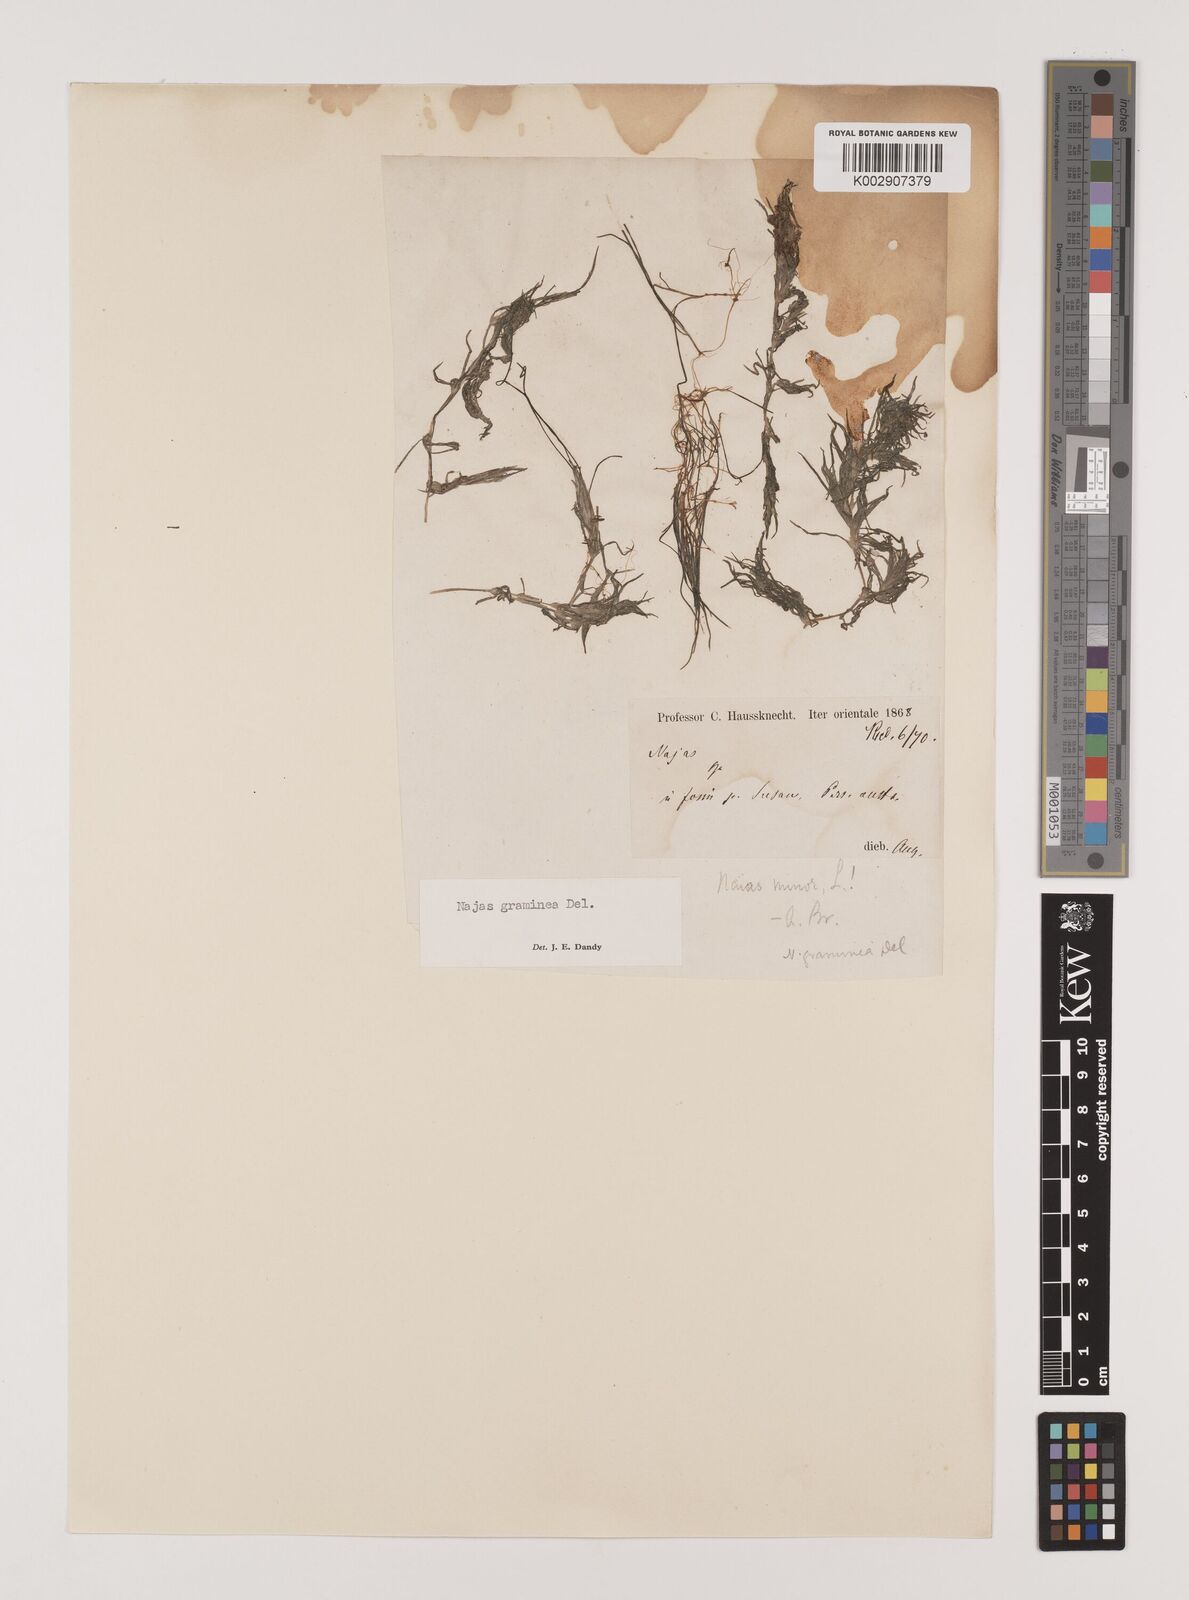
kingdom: Plantae
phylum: Tracheophyta
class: Liliopsida
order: Alismatales
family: Hydrocharitaceae
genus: Najas
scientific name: Najas graminea
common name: Ricefield waternymph
